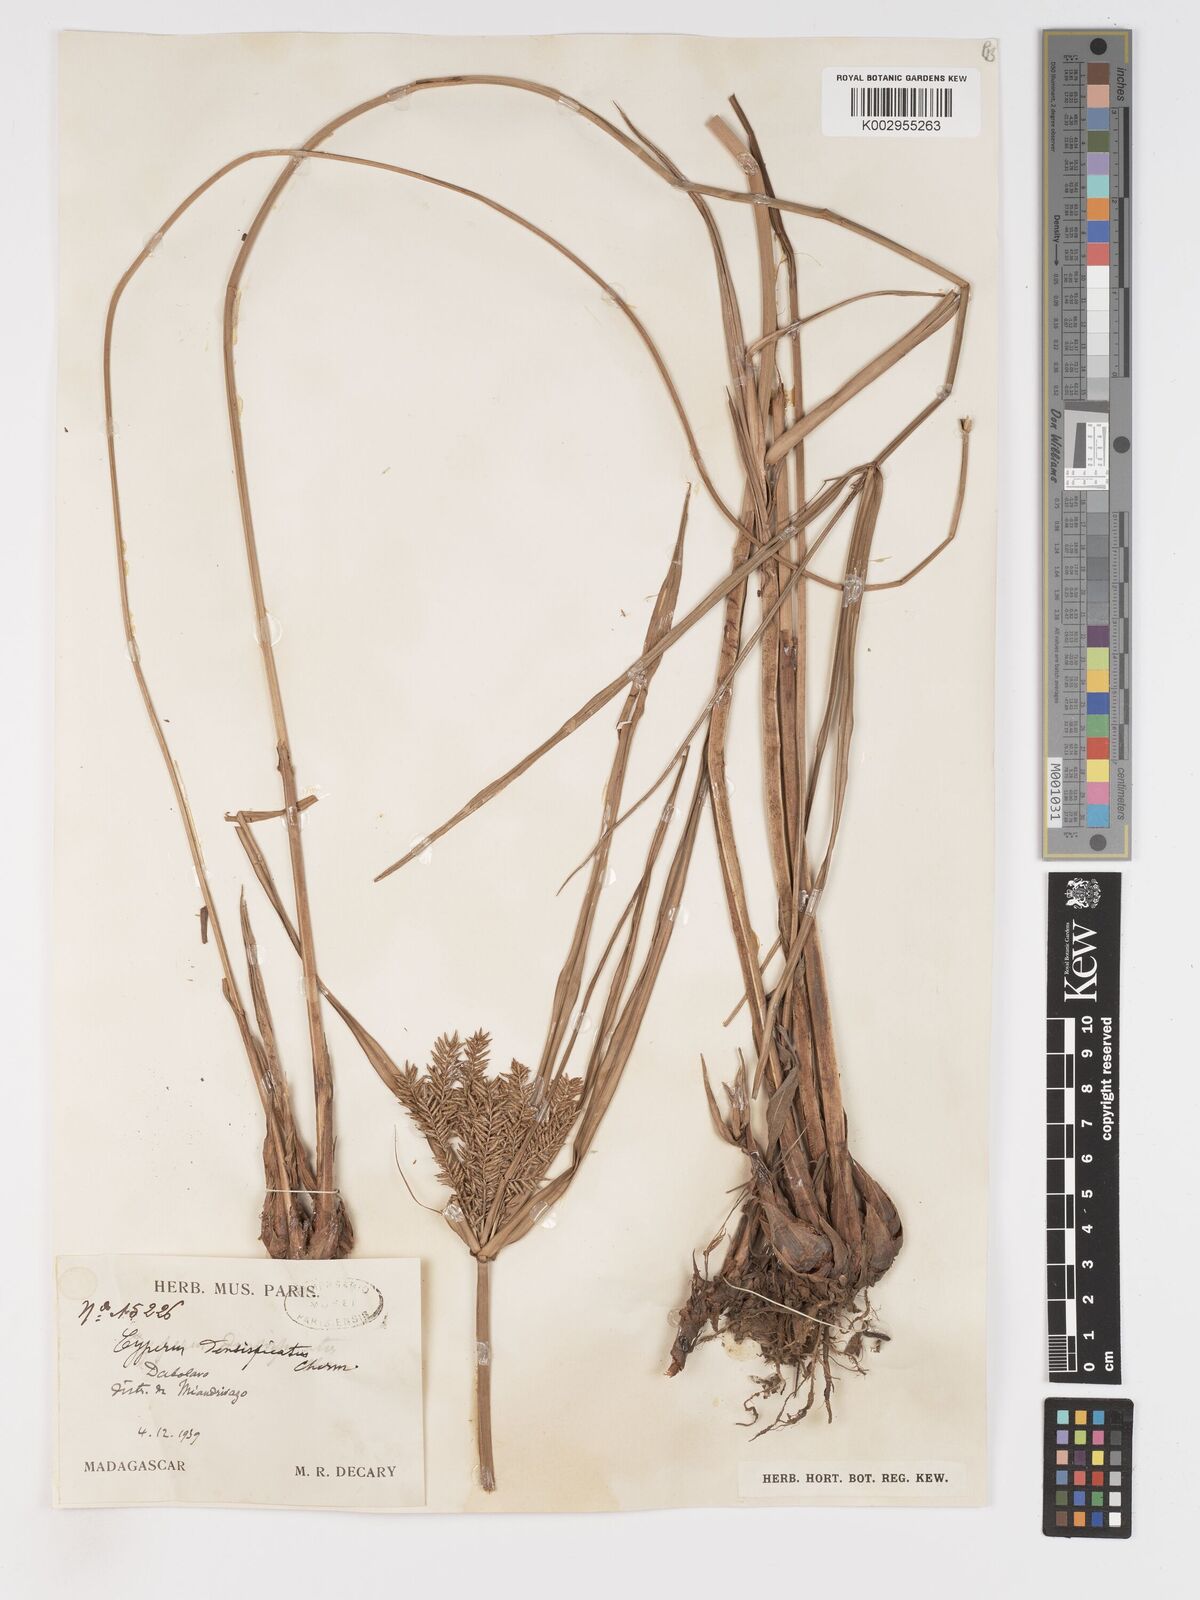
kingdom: Plantae
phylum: Tracheophyta
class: Liliopsida
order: Poales
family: Cyperaceae
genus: Cyperus
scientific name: Cyperus grandis
